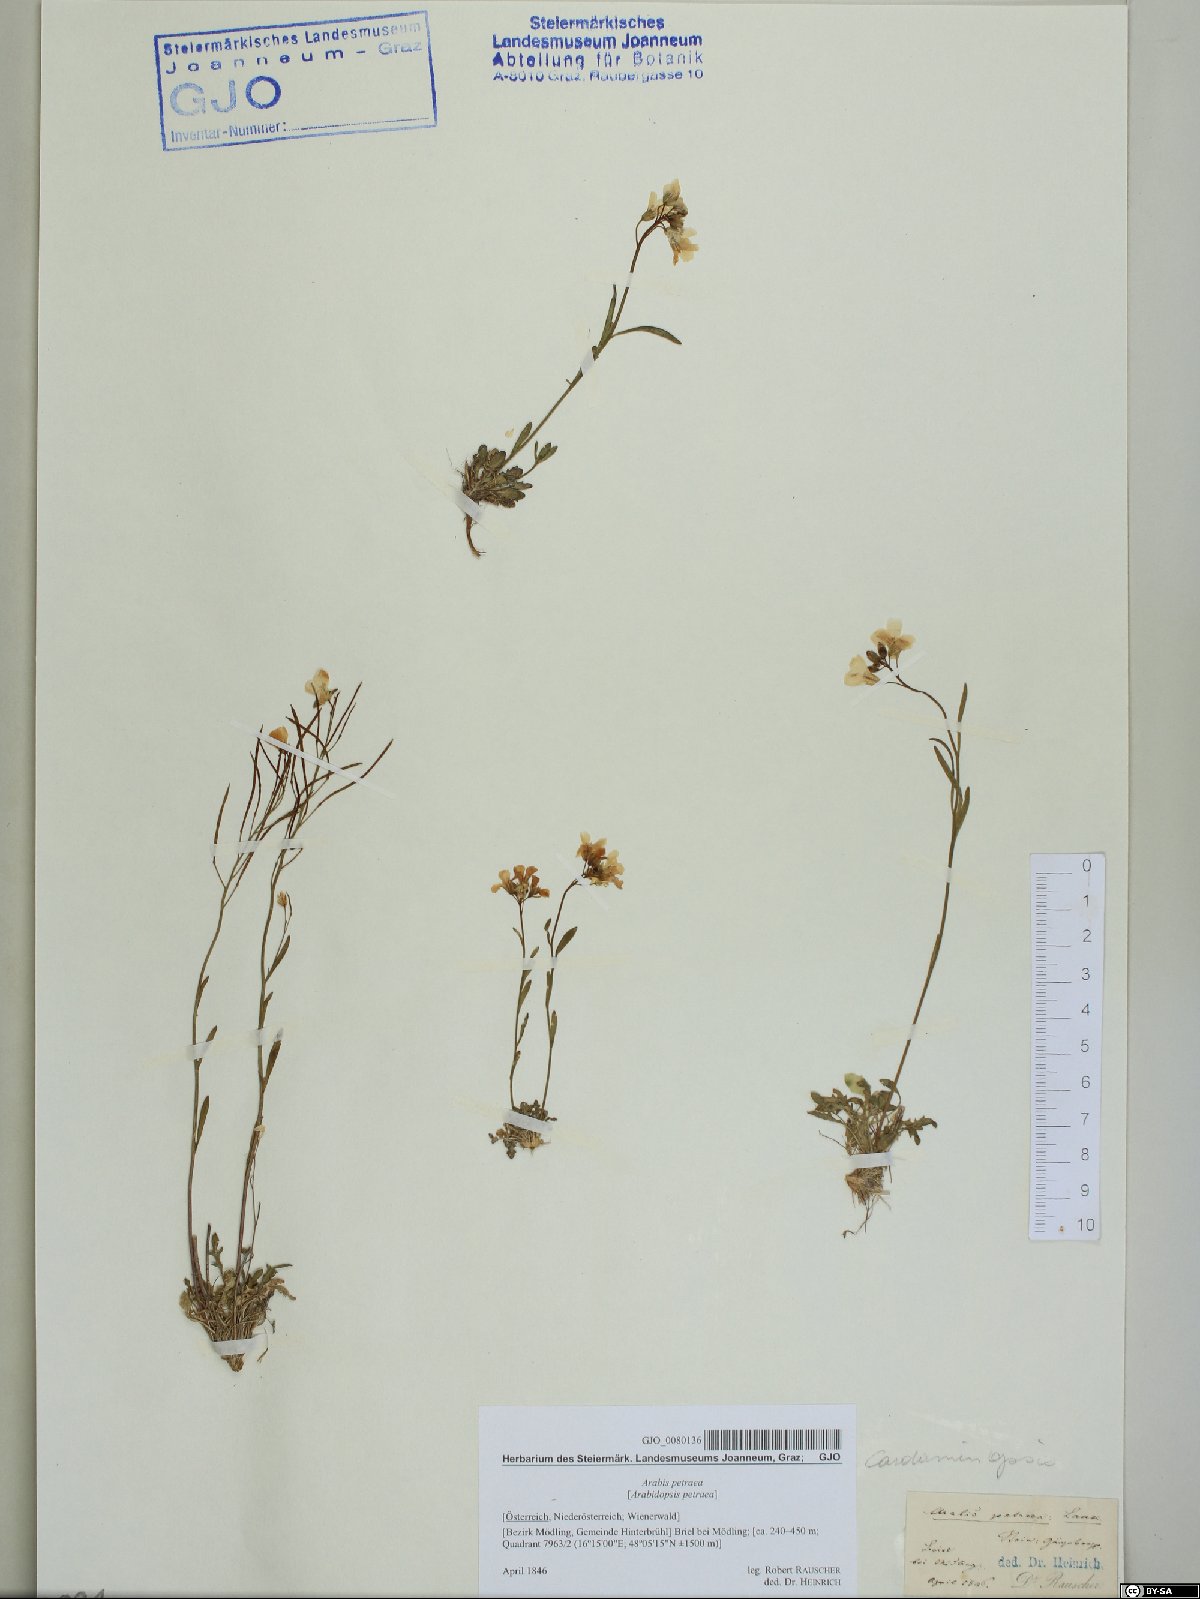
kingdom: Plantae
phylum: Tracheophyta
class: Magnoliopsida
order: Brassicales
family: Brassicaceae
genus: Arabidopsis
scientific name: Arabidopsis lyrata
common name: Lyrate rockcress
